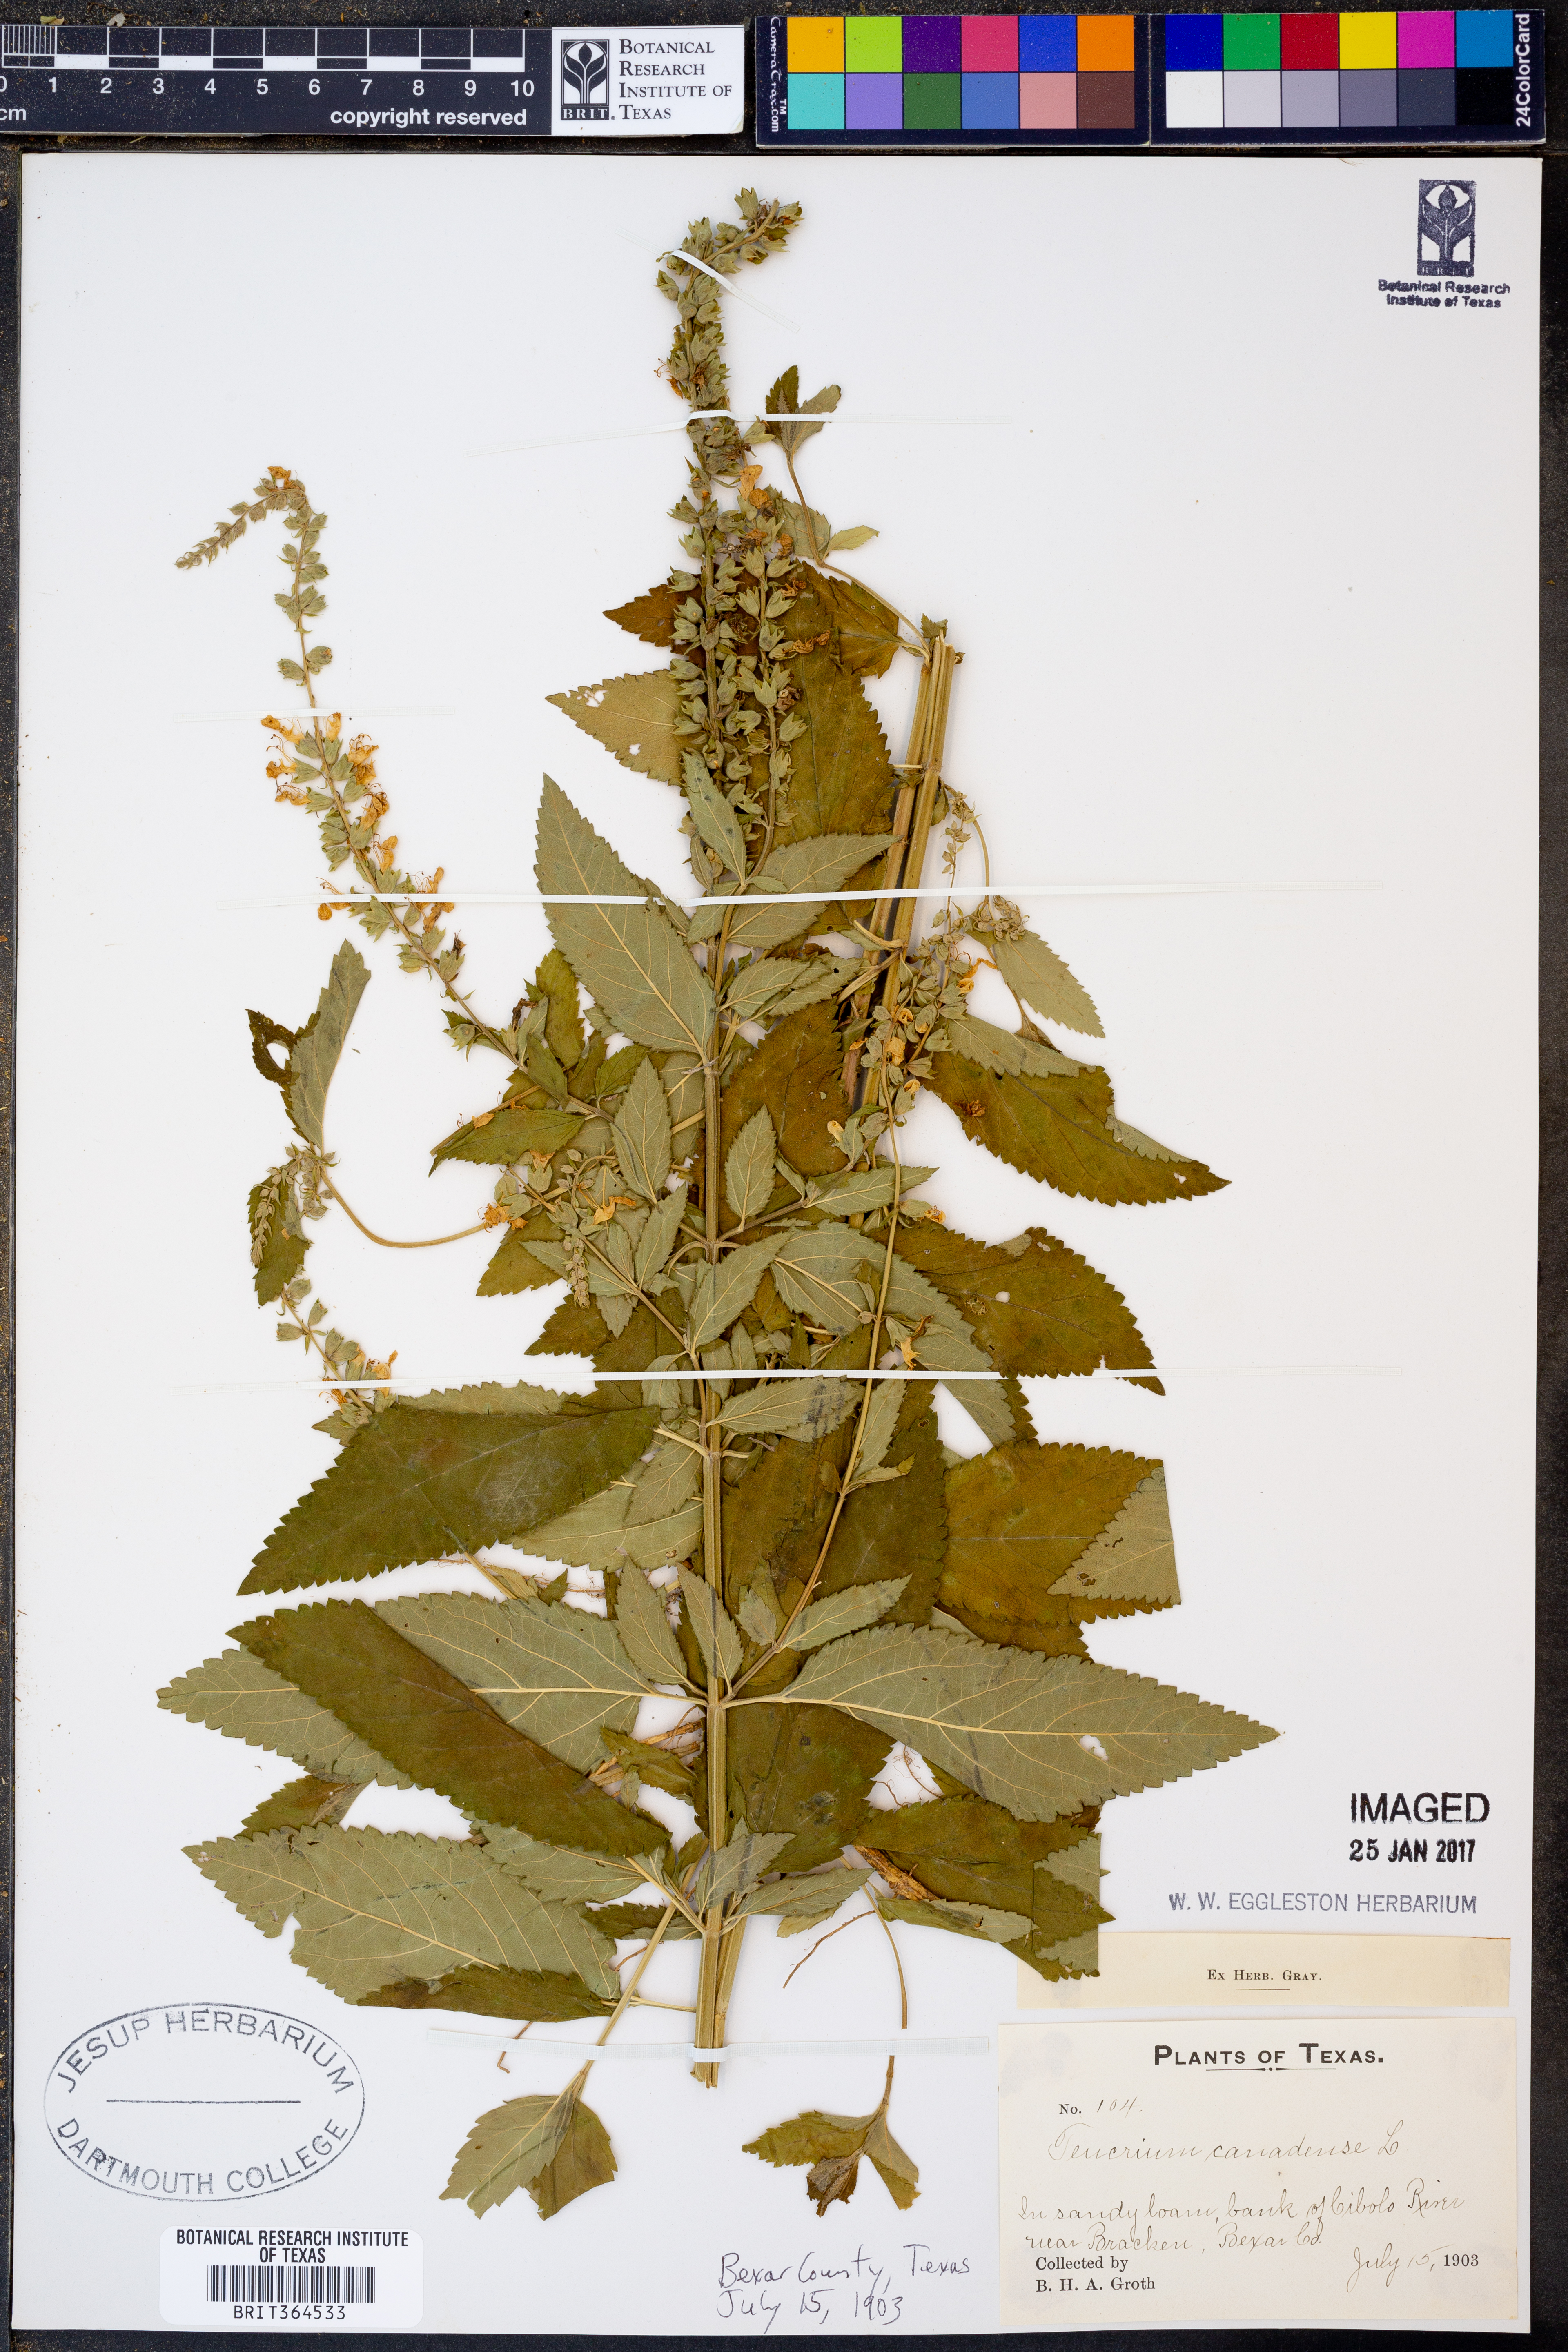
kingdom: Plantae
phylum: Tracheophyta
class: Magnoliopsida
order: Lamiales
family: Lamiaceae
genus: Teucrium
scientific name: Teucrium canadense
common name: American germander
